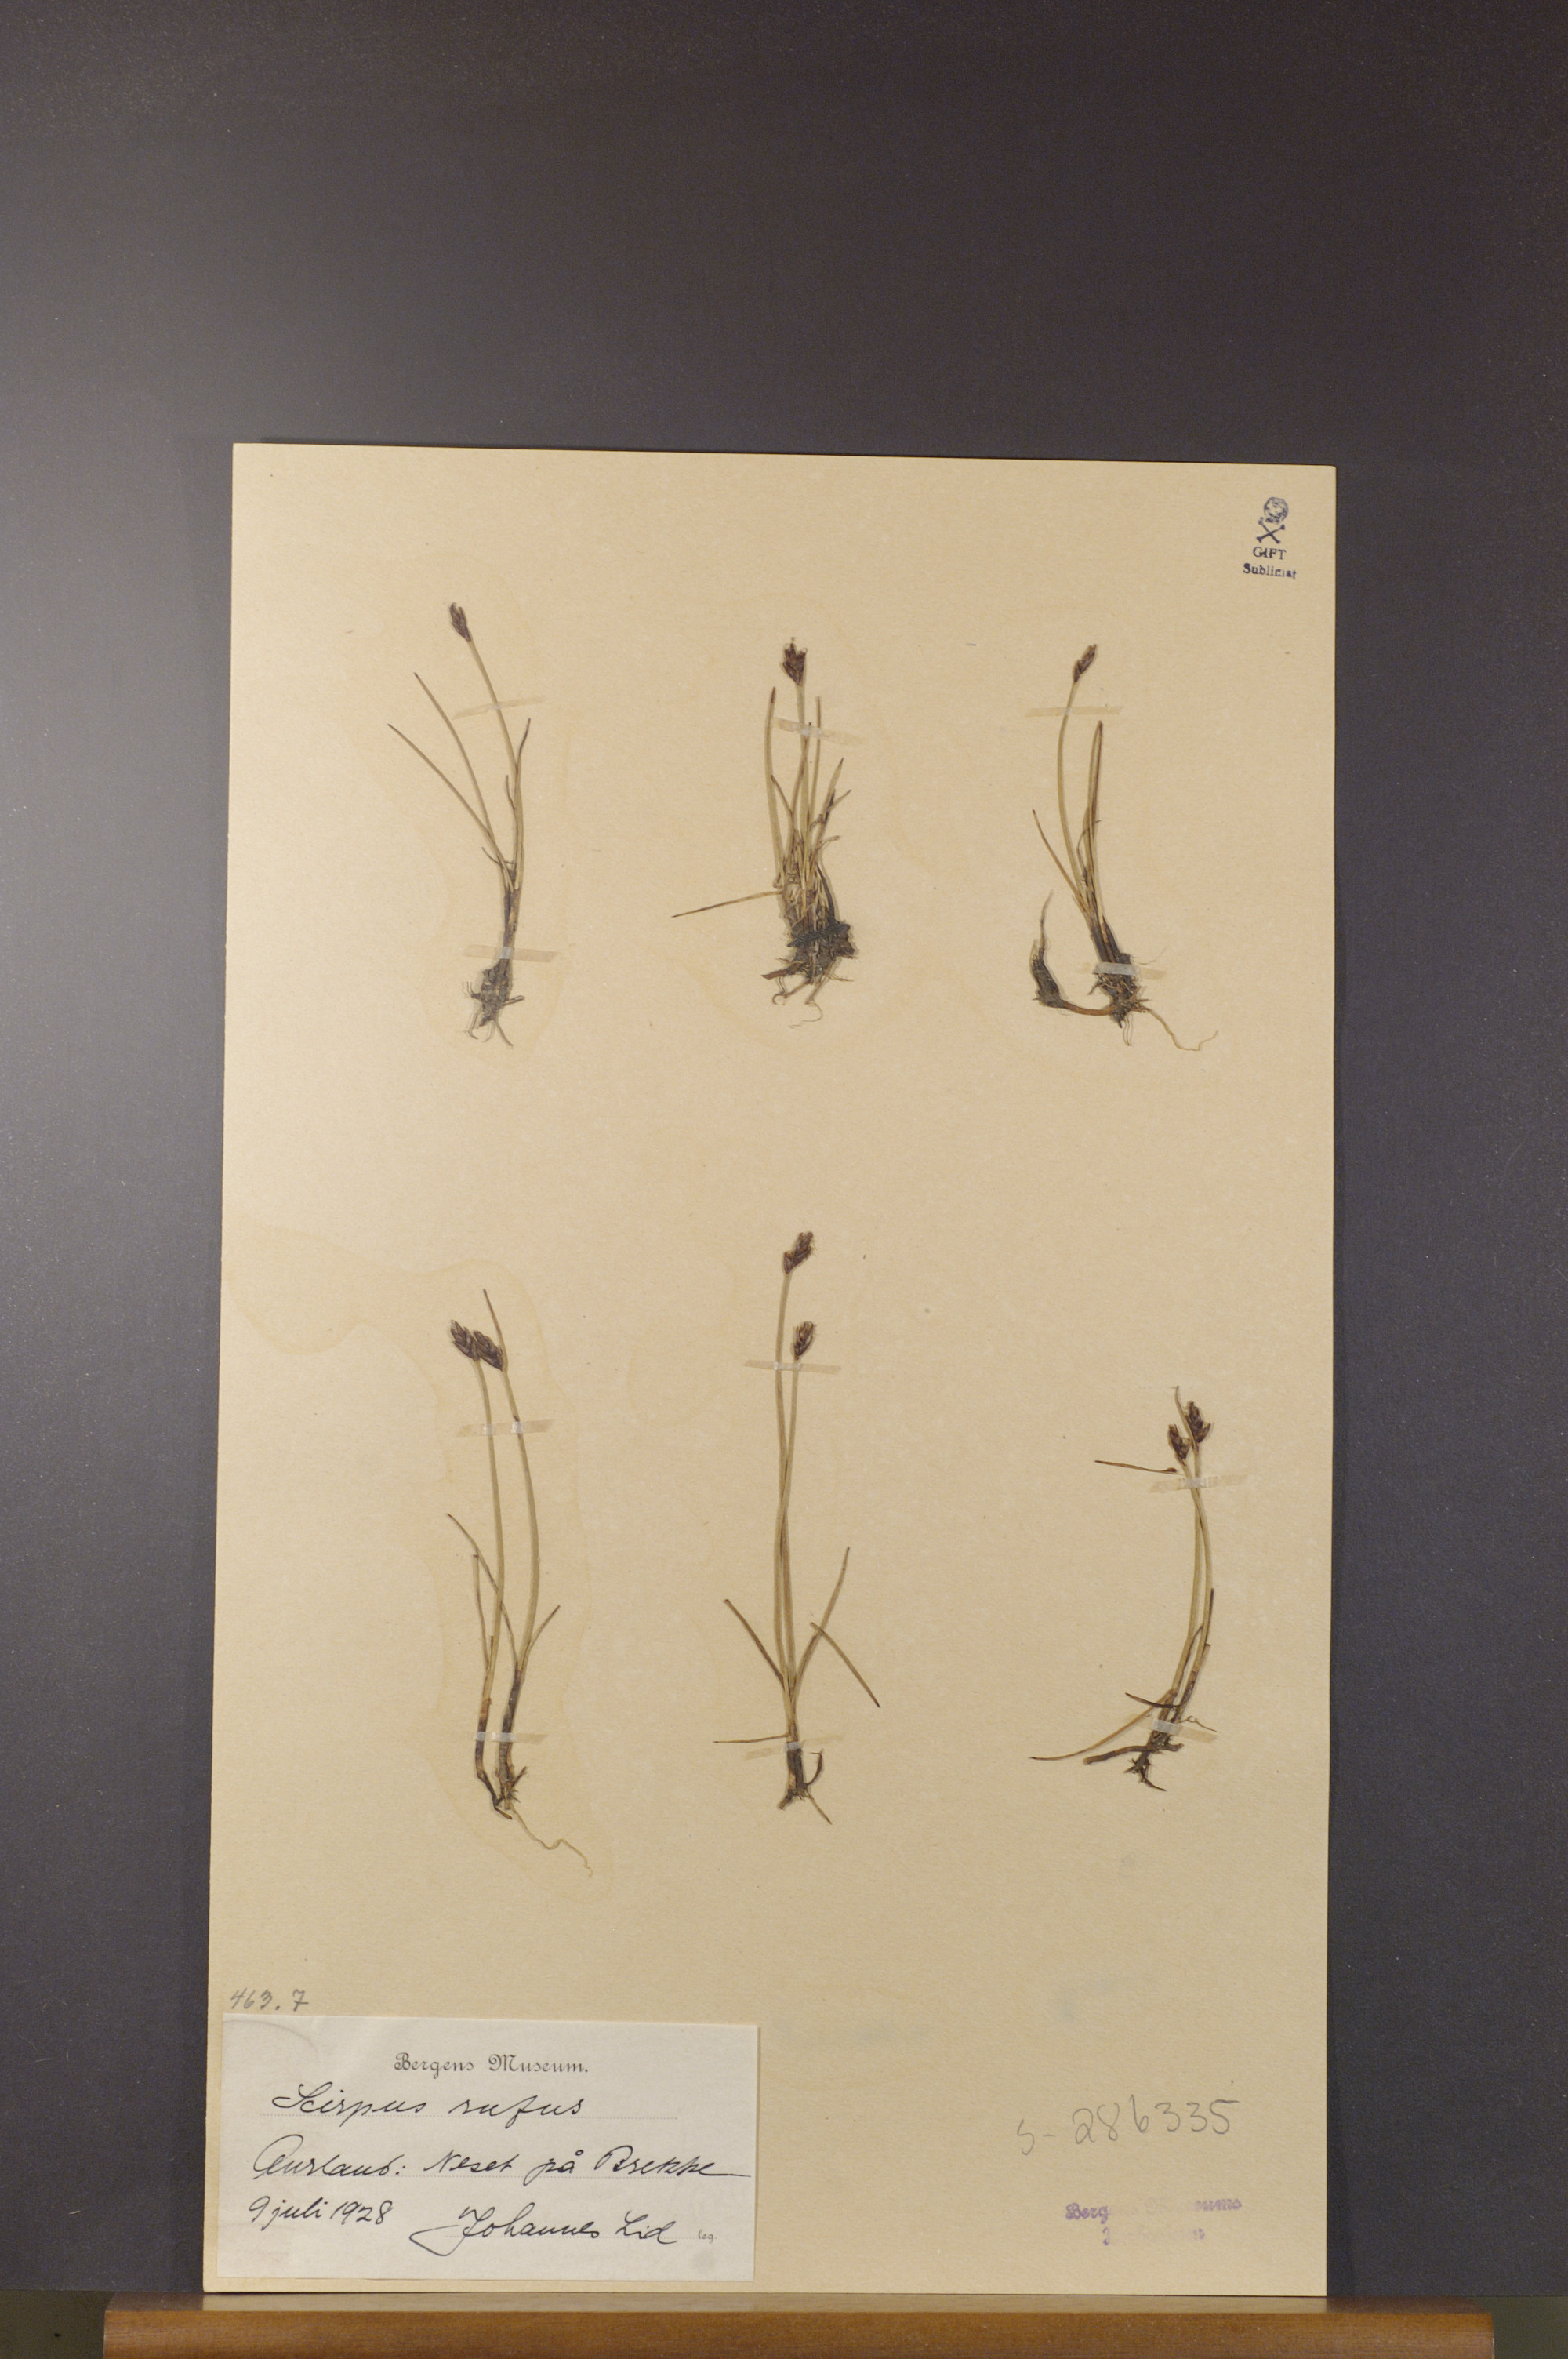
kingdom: Plantae
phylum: Tracheophyta
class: Liliopsida
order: Poales
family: Cyperaceae
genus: Blysmus
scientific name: Blysmus rufus
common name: Saltmarsh flat-sedge
